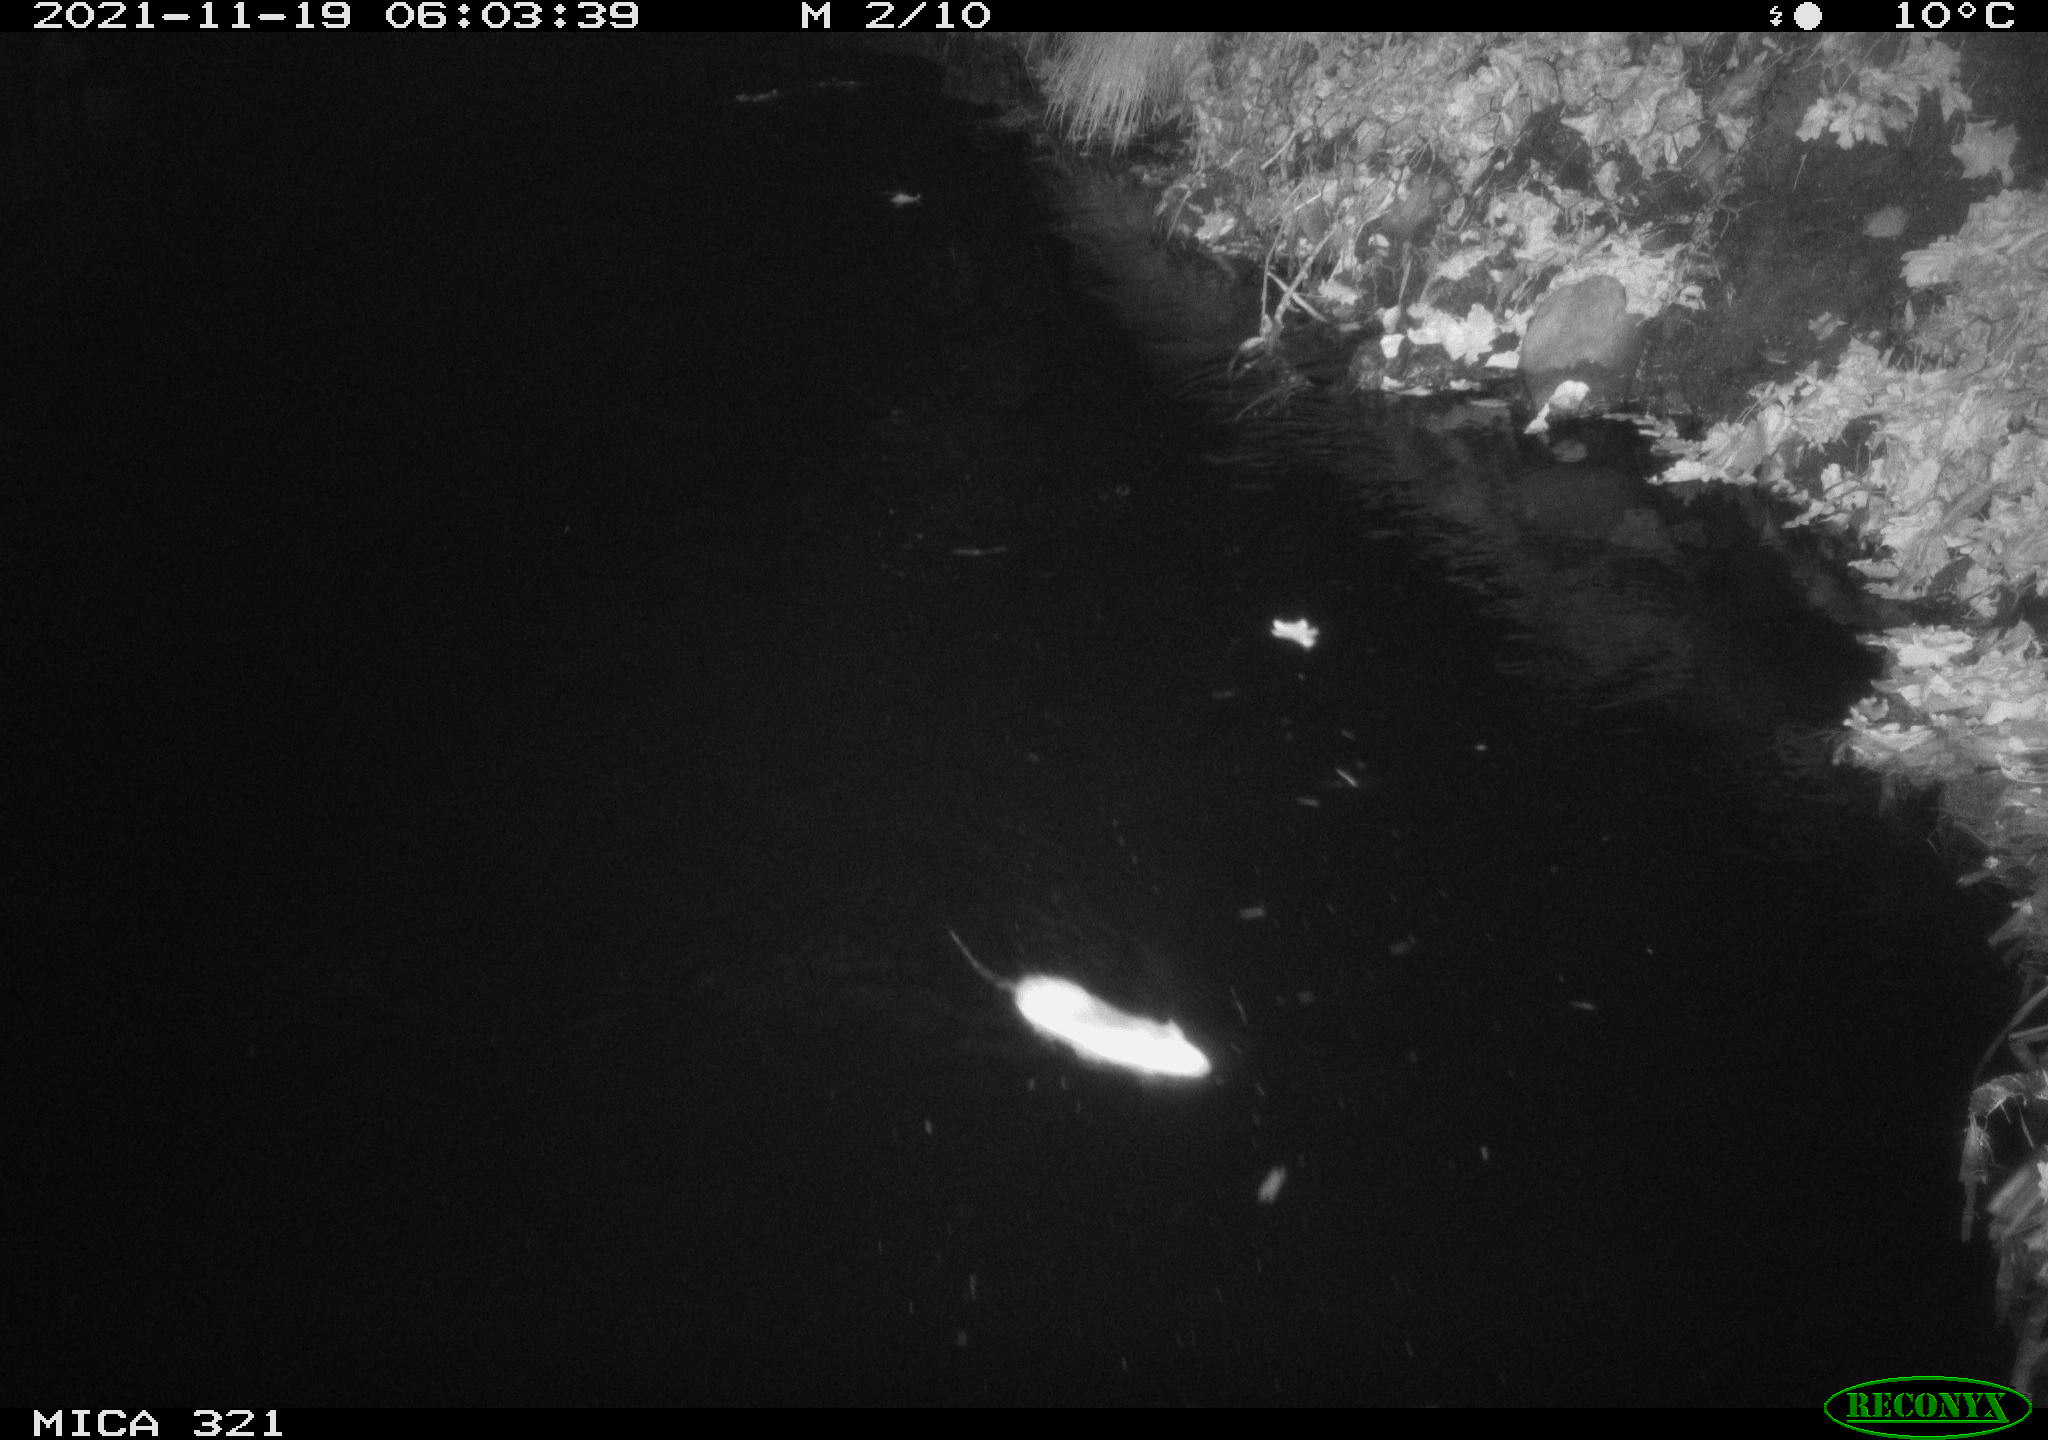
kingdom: Animalia
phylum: Chordata
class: Mammalia
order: Rodentia
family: Muridae
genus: Rattus
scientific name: Rattus norvegicus
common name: Brown rat
